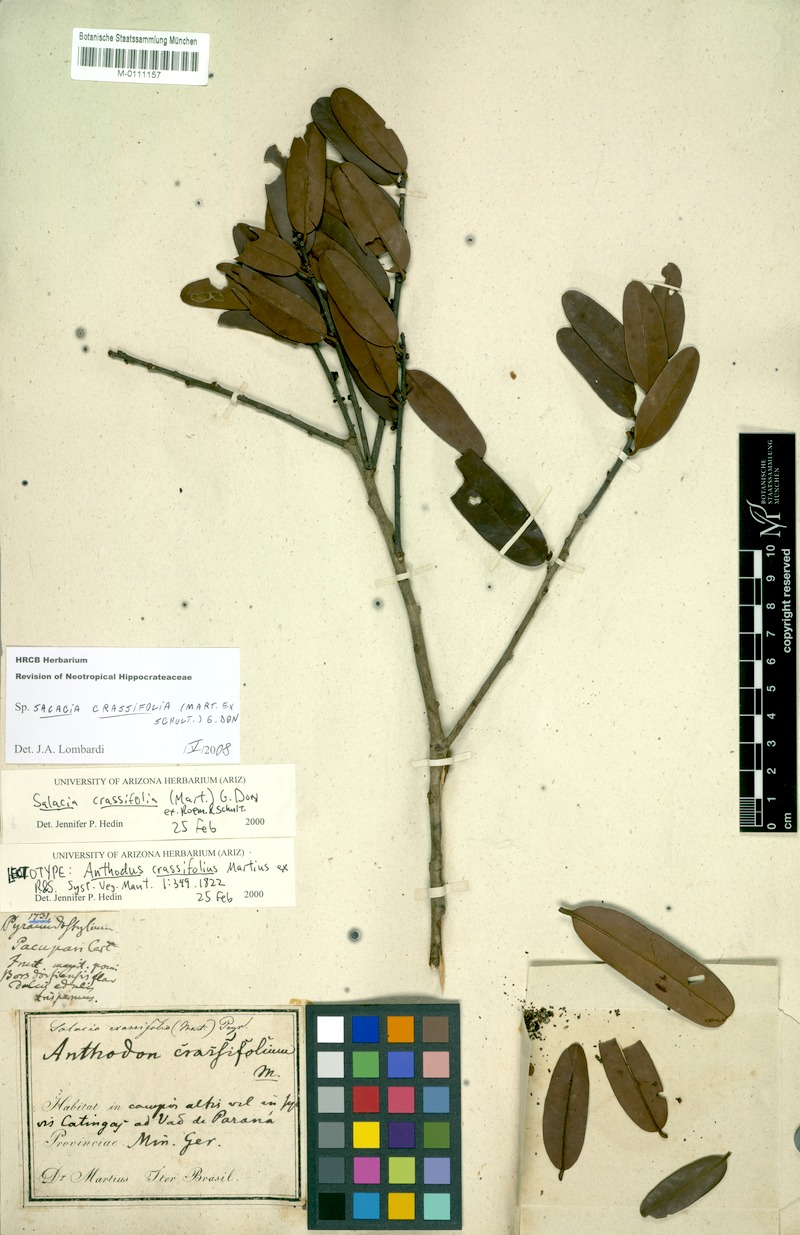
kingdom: Plantae
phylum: Tracheophyta
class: Magnoliopsida
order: Celastrales
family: Celastraceae
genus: Salacia
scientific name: Salacia crassifolia
